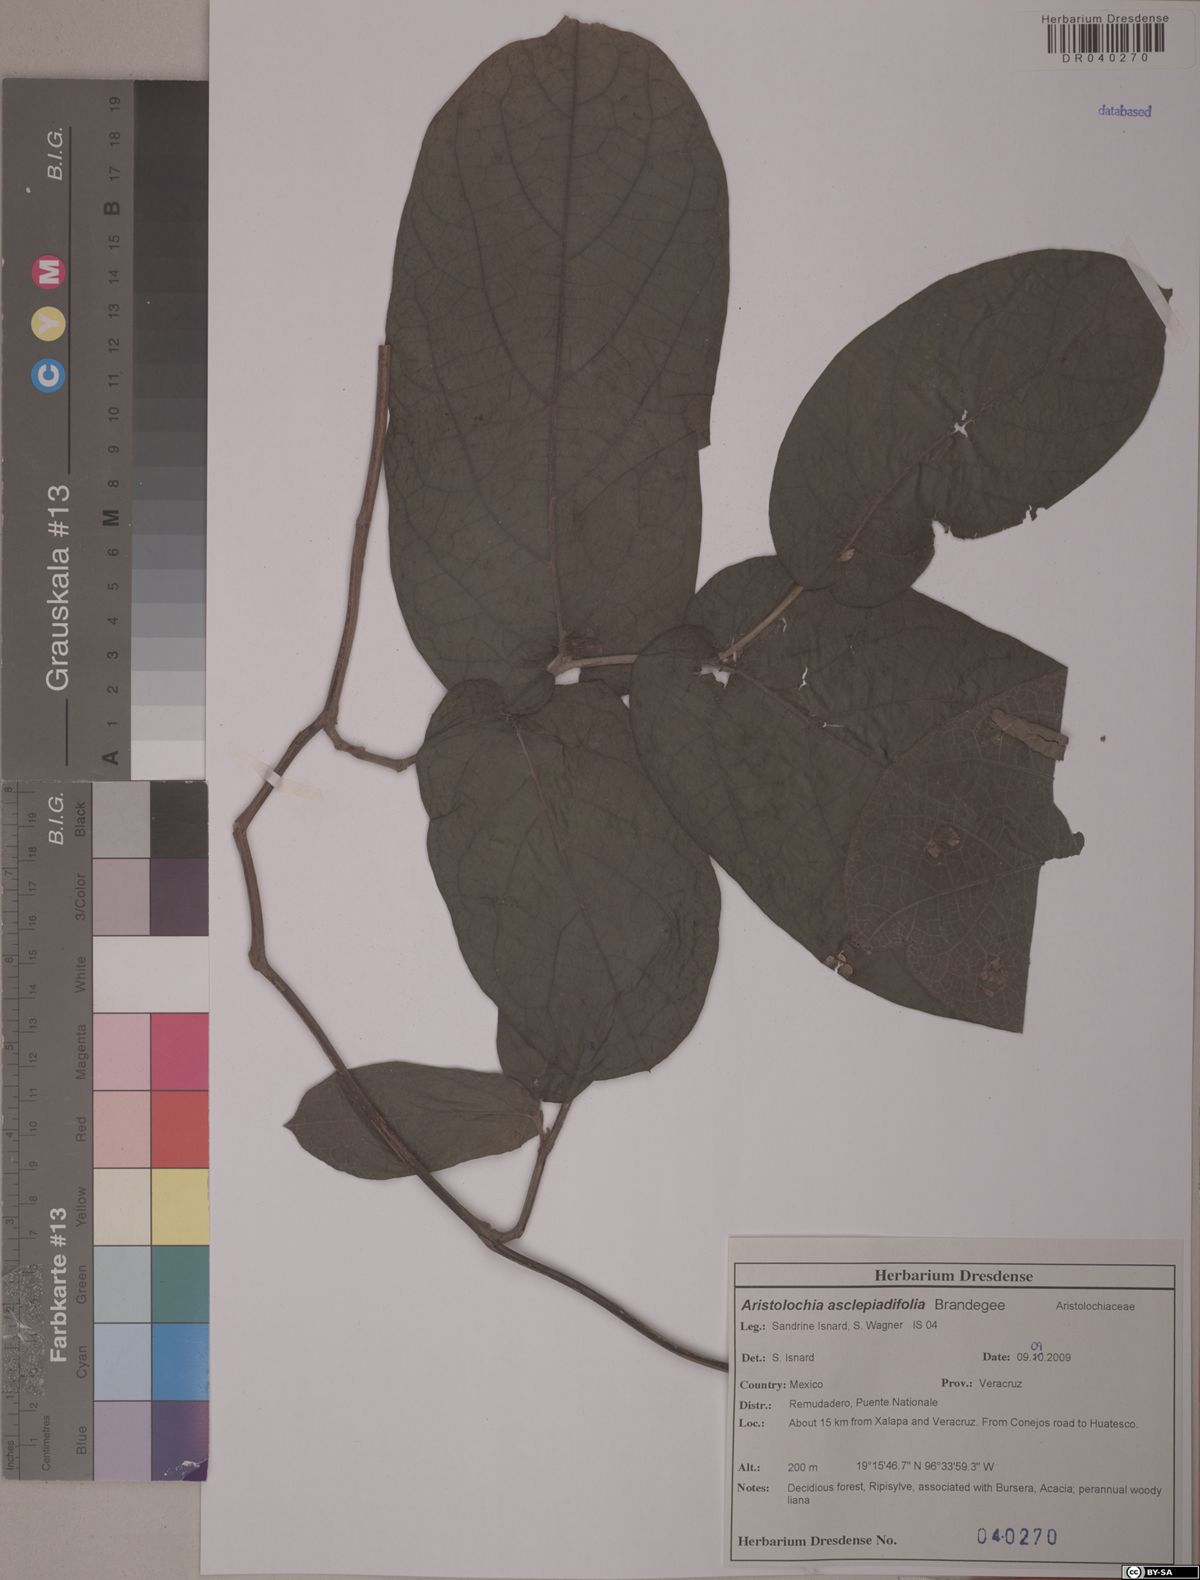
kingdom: Plantae
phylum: Tracheophyta
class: Magnoliopsida
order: Piperales
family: Aristolochiaceae
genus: Isotrema
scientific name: Isotrema asclepiadifolium
